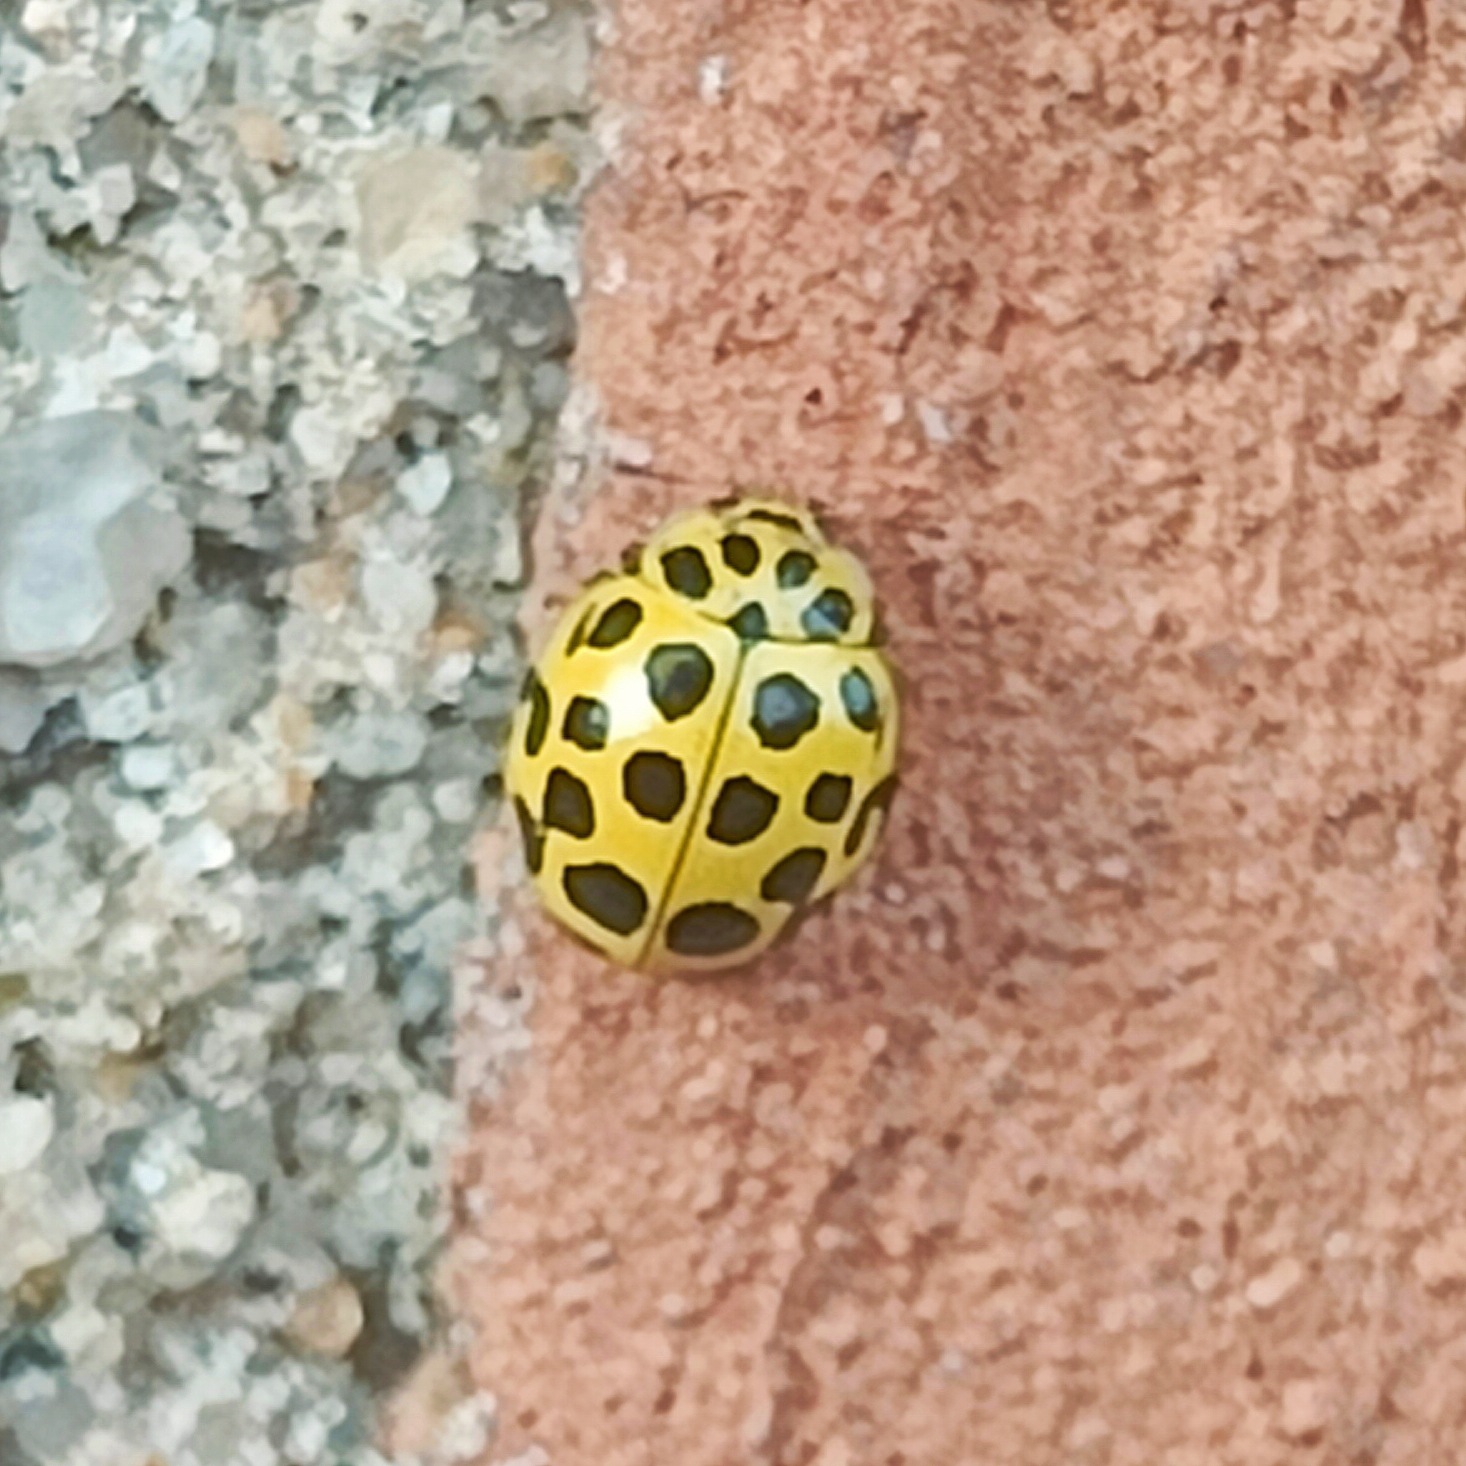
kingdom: Animalia
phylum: Arthropoda
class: Insecta
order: Coleoptera
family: Coccinellidae
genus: Psyllobora
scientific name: Psyllobora vigintiduopunctata
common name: Toogtyveplettet mariehøne
